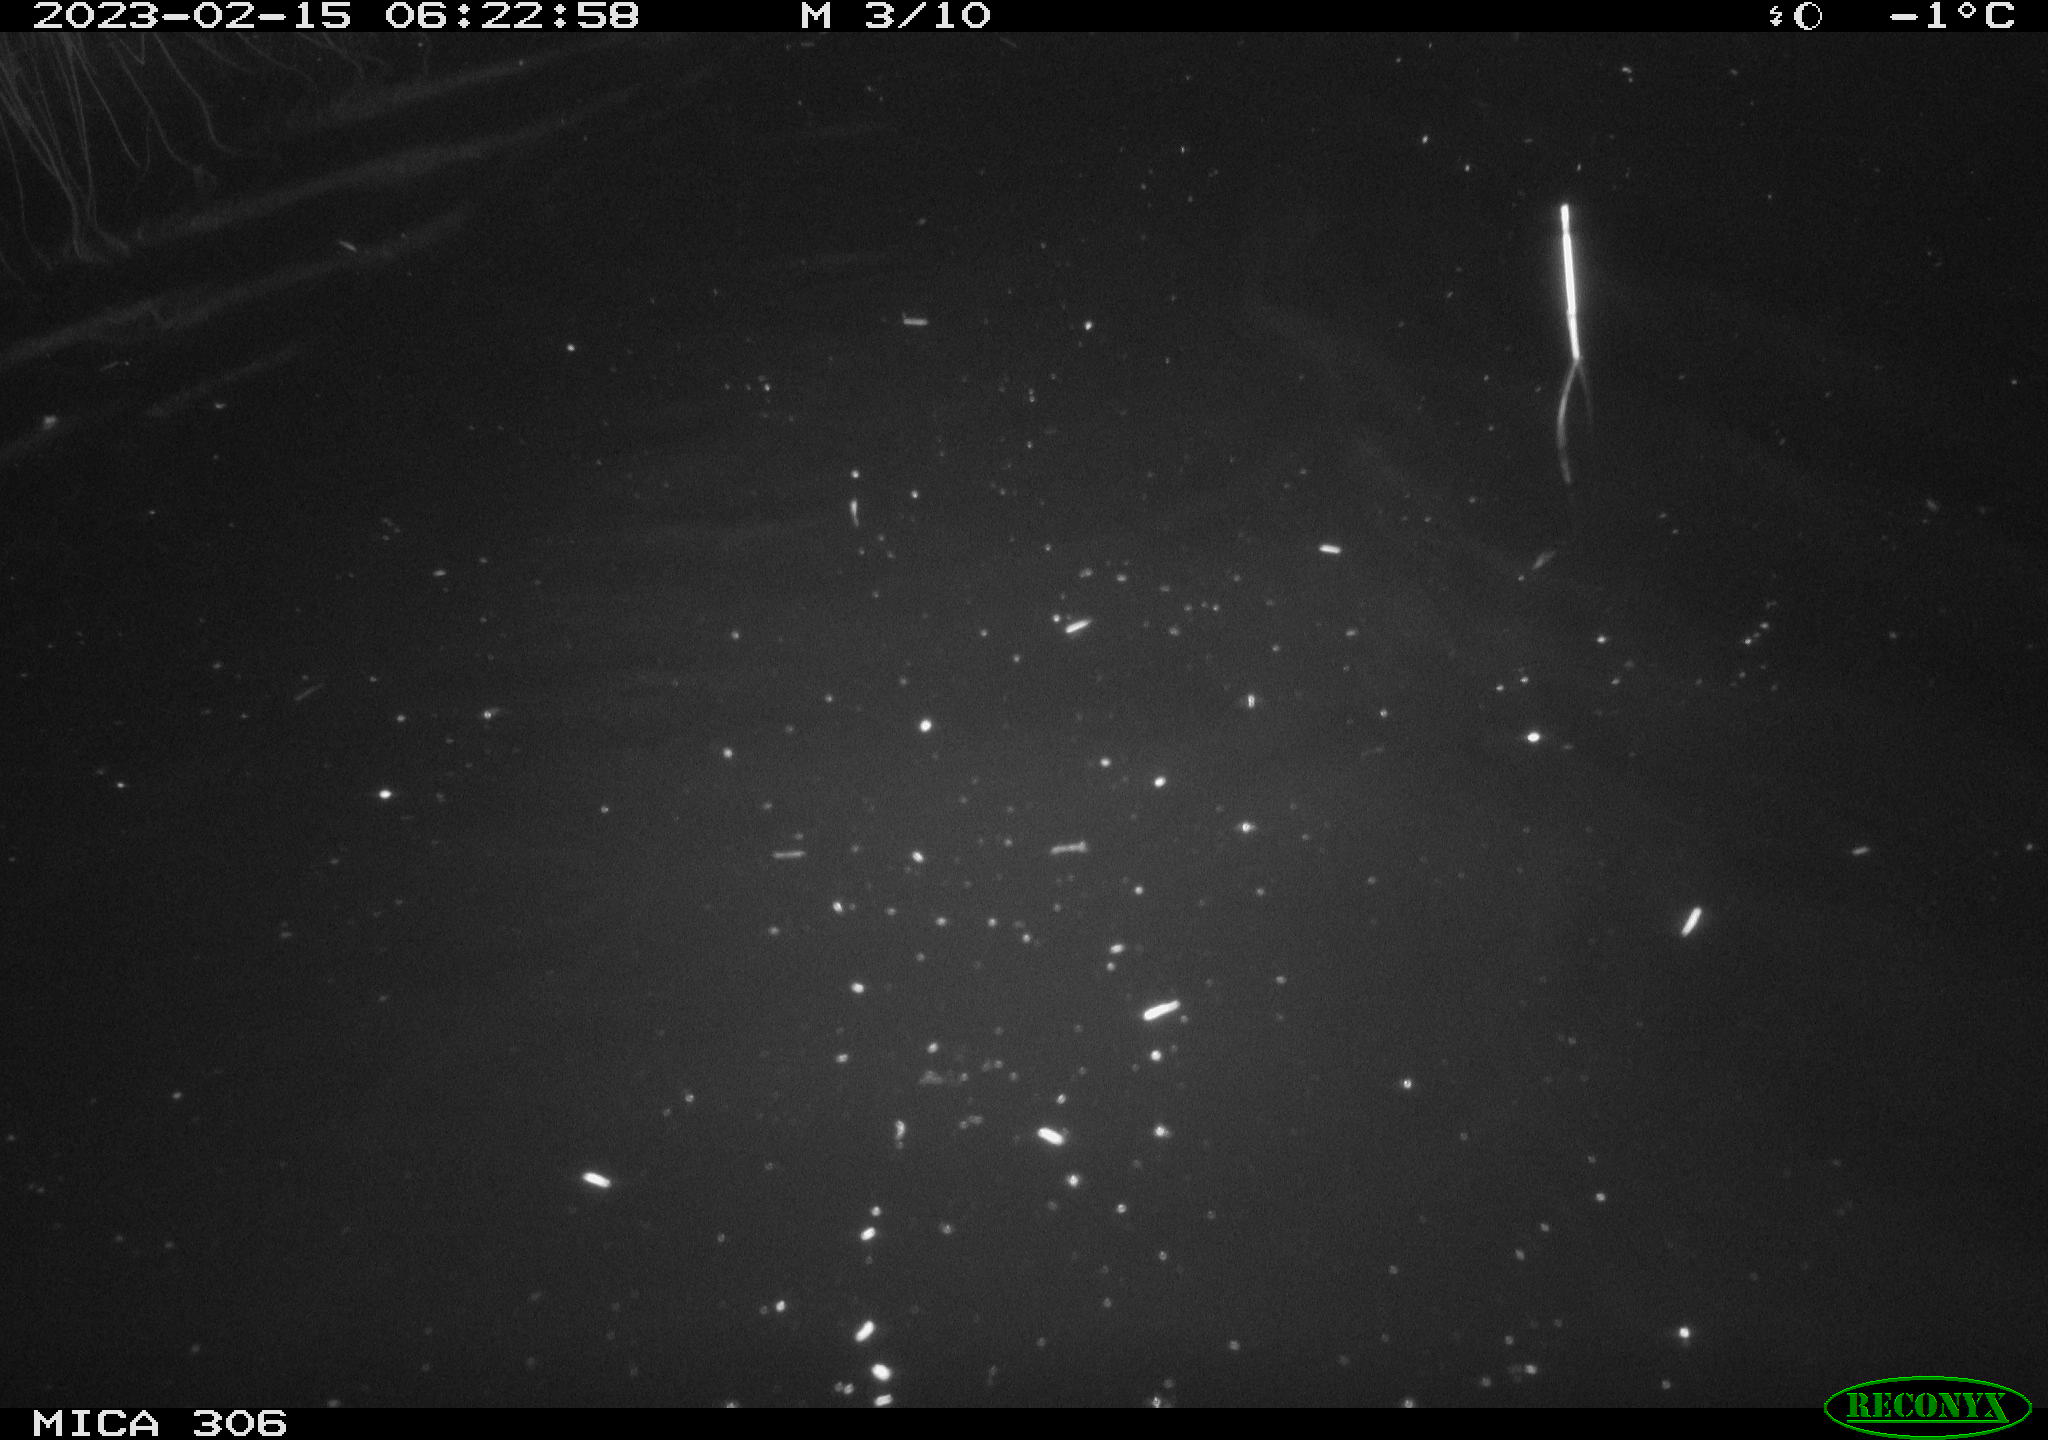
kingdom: Animalia
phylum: Chordata
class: Mammalia
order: Rodentia
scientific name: Rodentia
